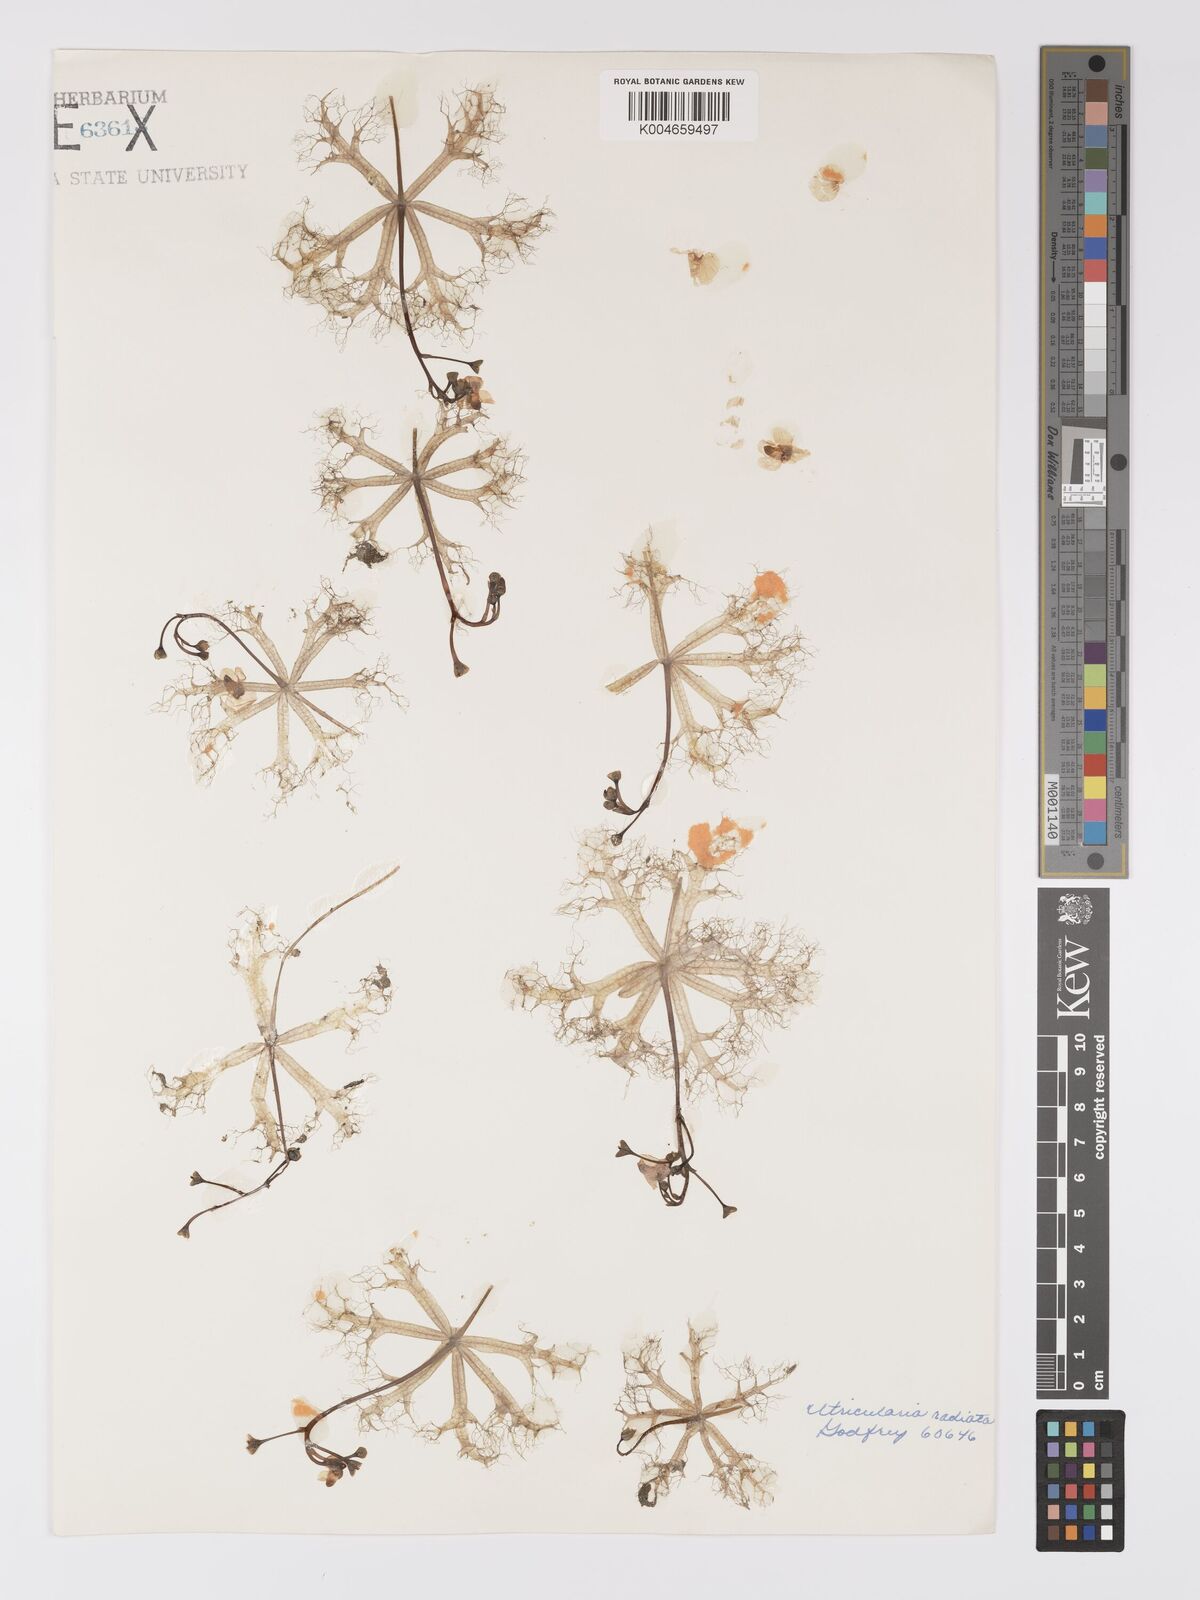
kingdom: Plantae
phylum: Tracheophyta
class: Magnoliopsida
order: Lamiales
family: Lentibulariaceae
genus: Utricularia
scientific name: Utricularia radiata
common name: Floating bladderwort
